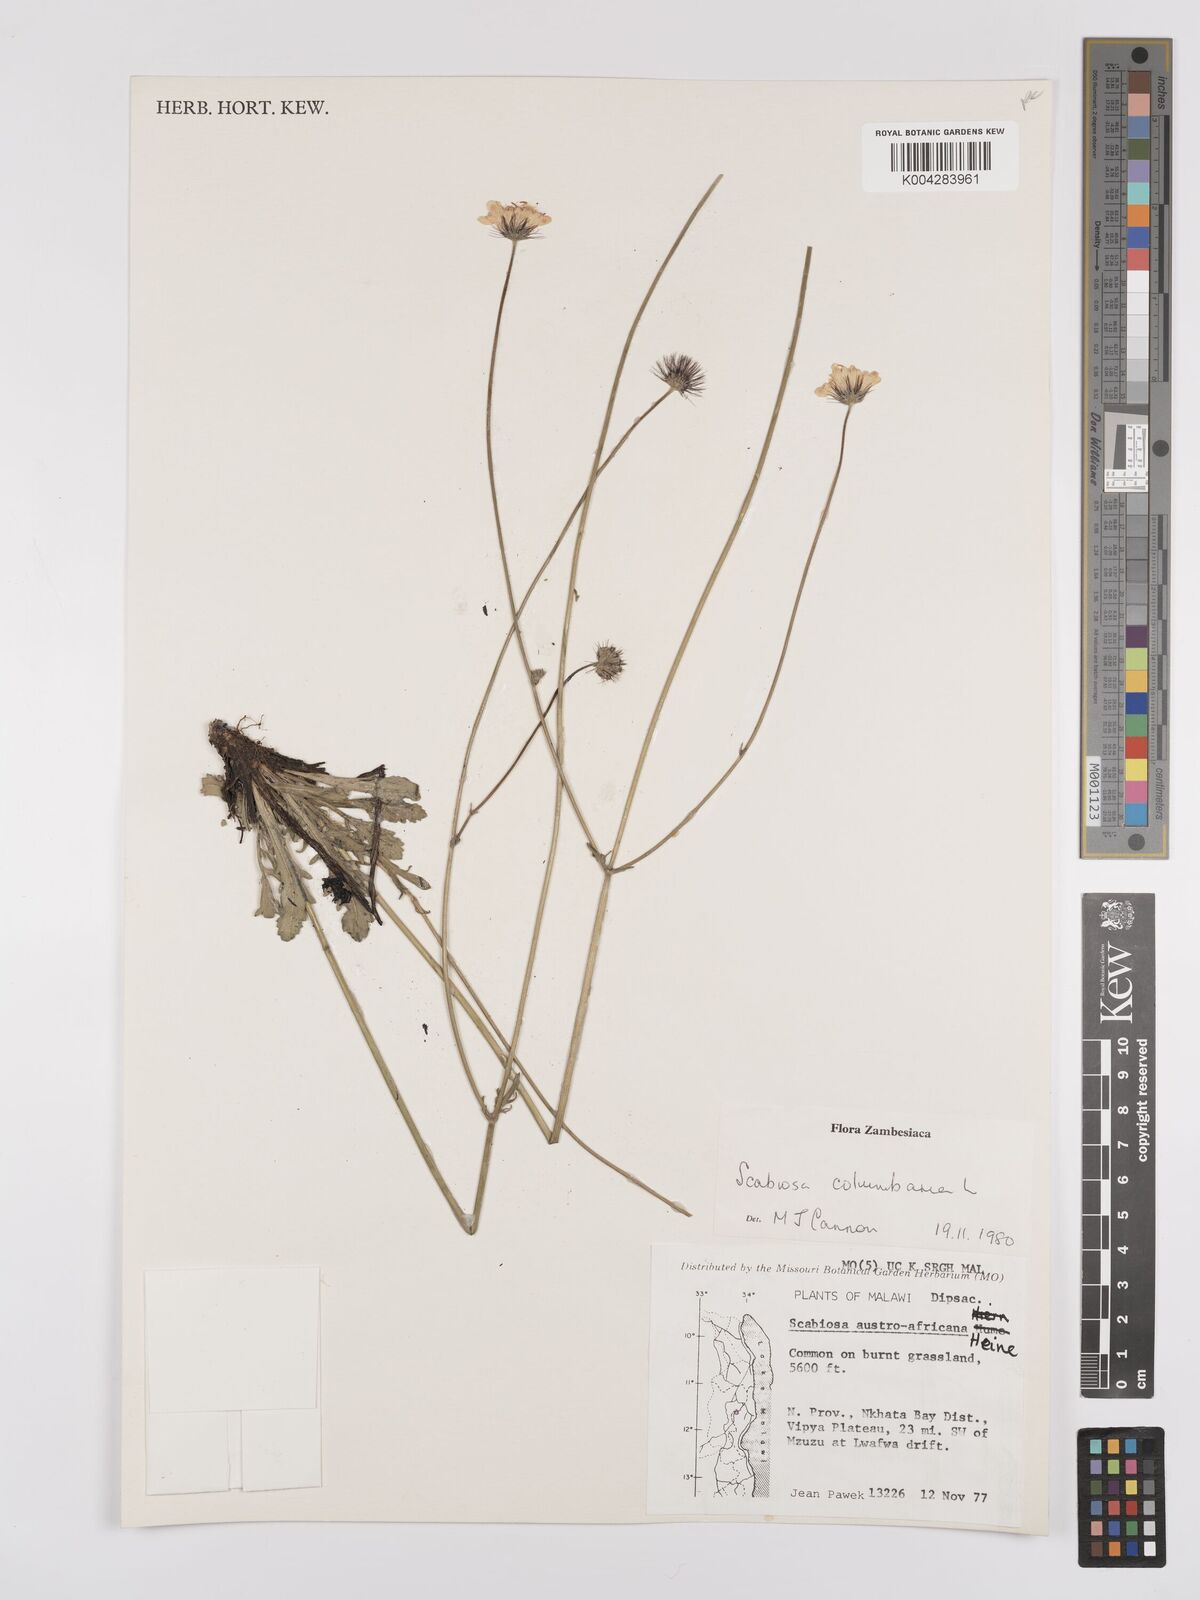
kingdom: Plantae
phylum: Tracheophyta
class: Magnoliopsida
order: Dipsacales
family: Caprifoliaceae
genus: Scabiosa
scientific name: Scabiosa austroafricana
